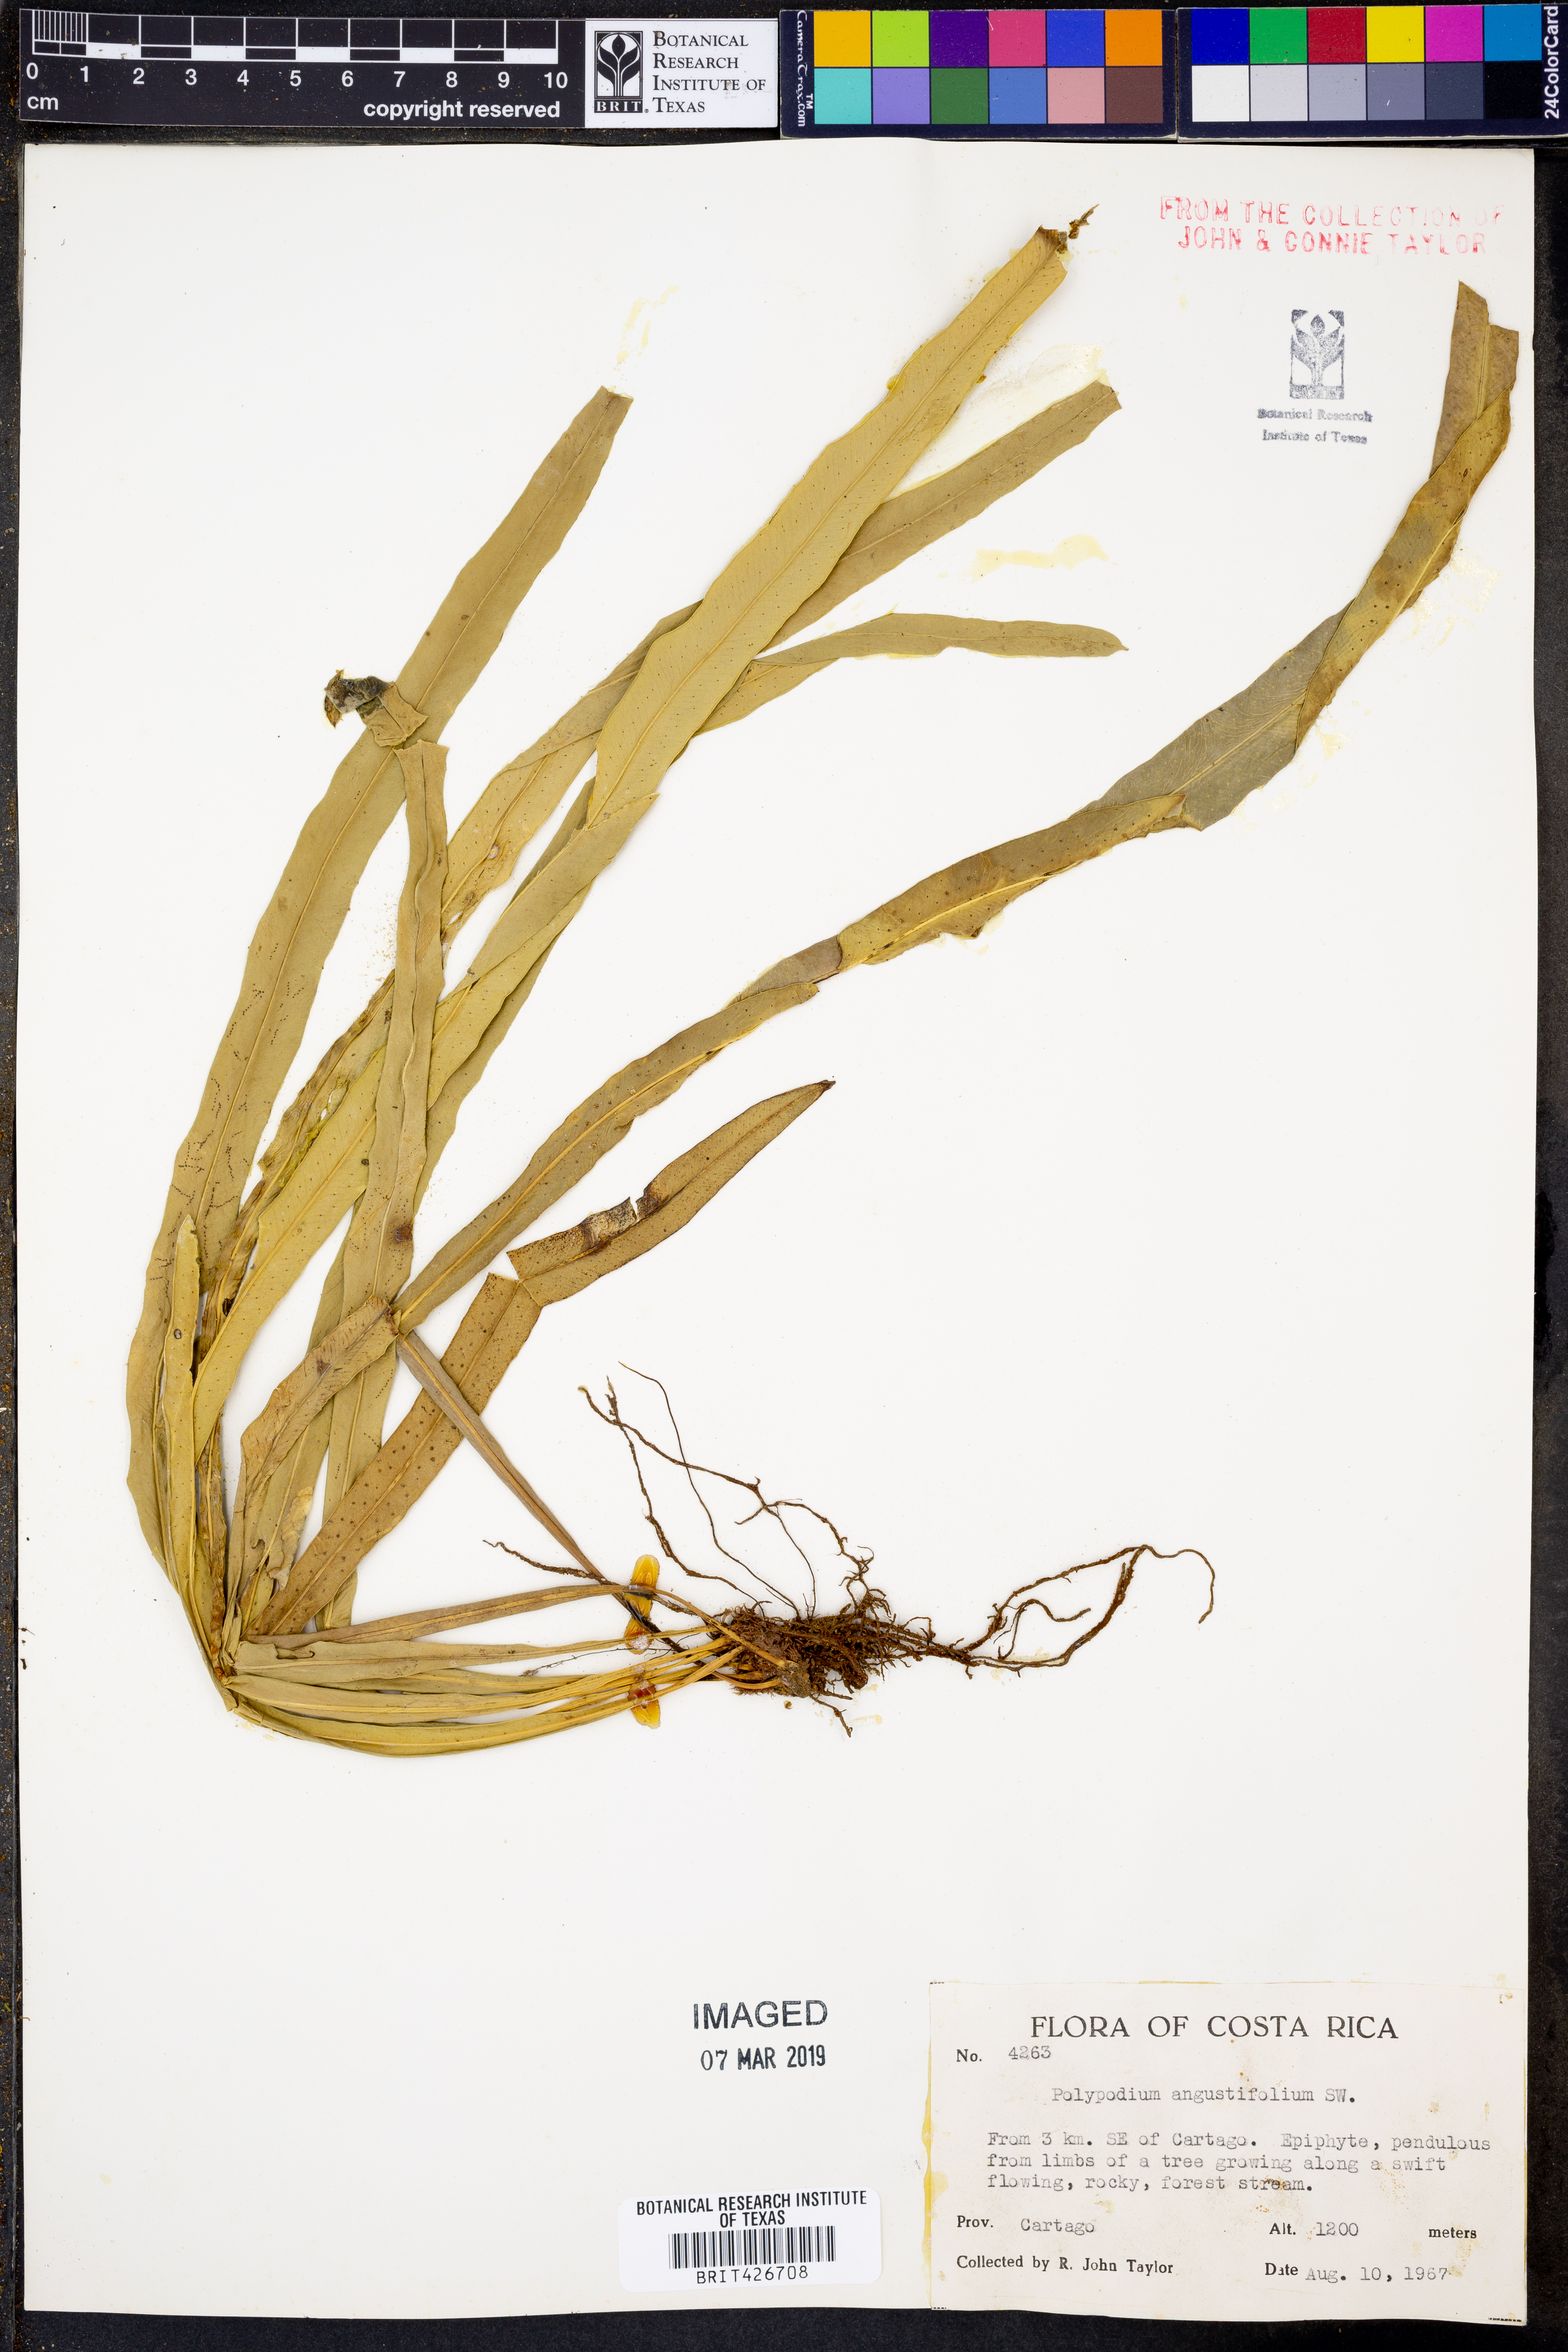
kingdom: Plantae
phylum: Tracheophyta
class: Polypodiopsida
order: Polypodiales
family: Polypodiaceae
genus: Campyloneurum
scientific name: Campyloneurum angustifolium
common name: Narrow-leaf strap fern
